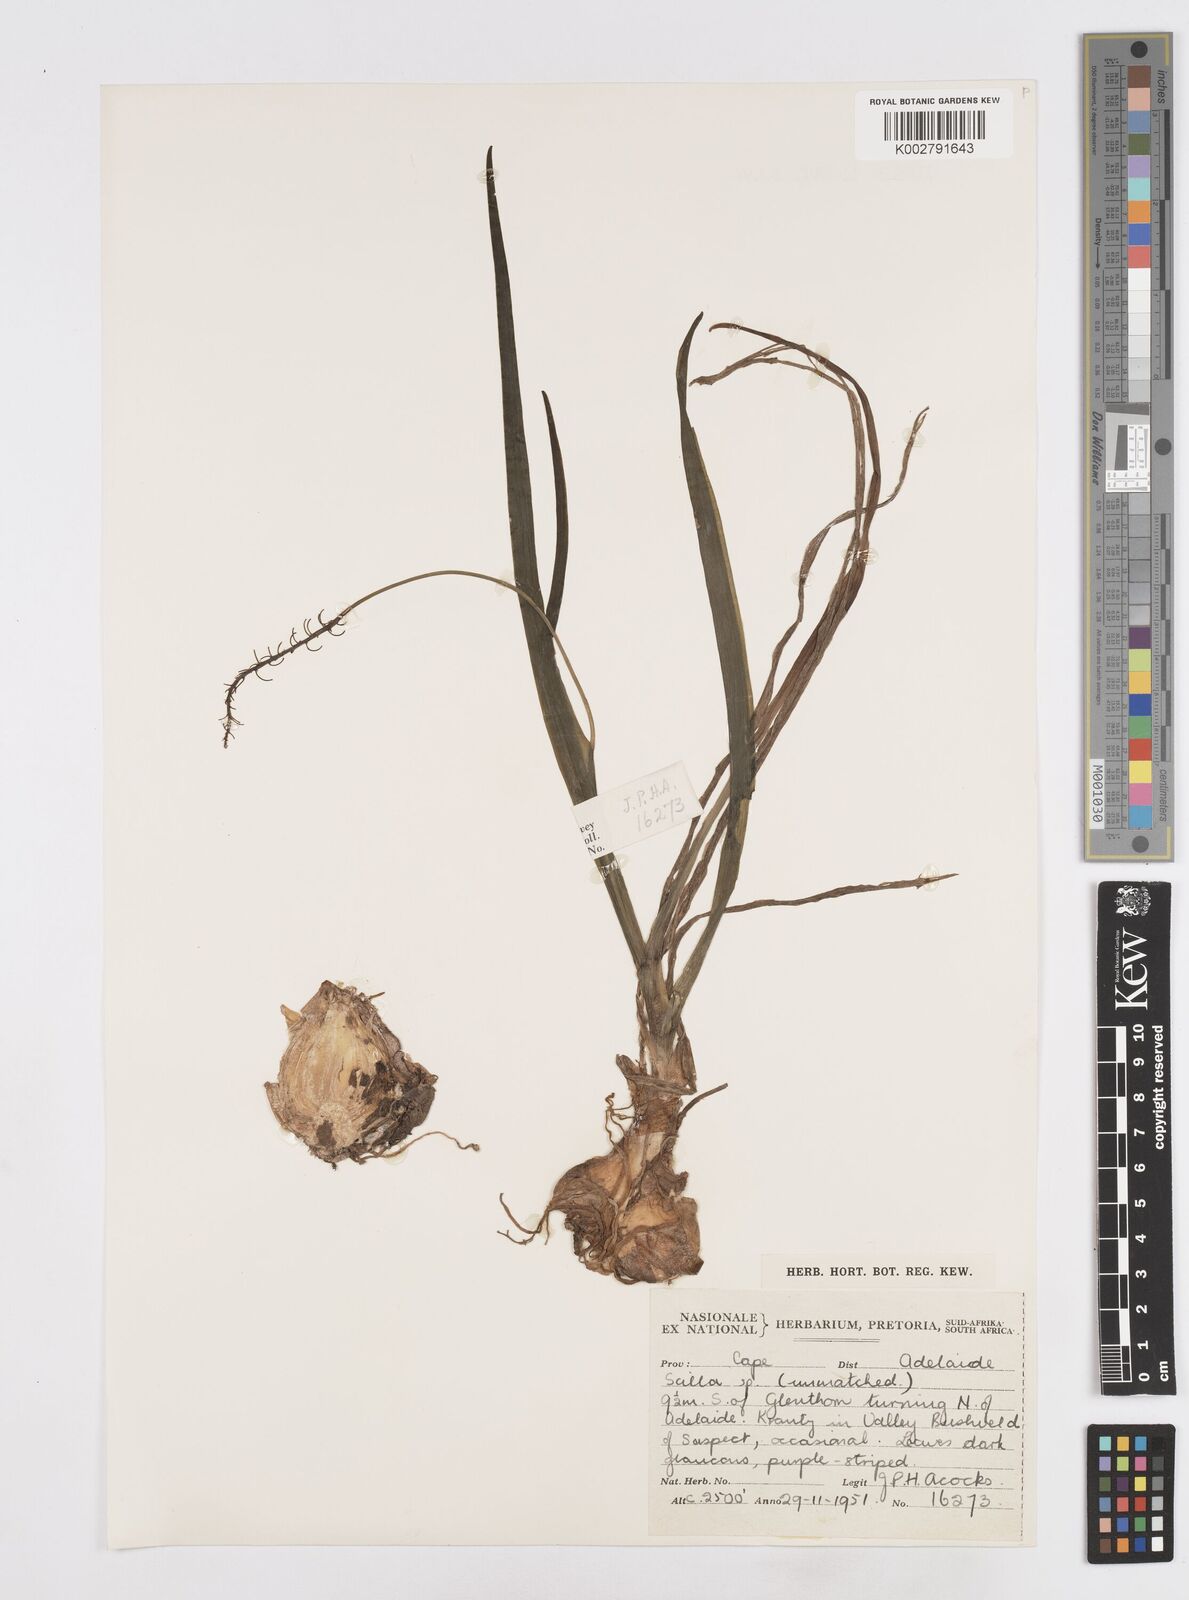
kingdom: Plantae
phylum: Tracheophyta
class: Liliopsida
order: Asparagales
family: Asparagaceae
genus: Scilla
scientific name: Scilla
